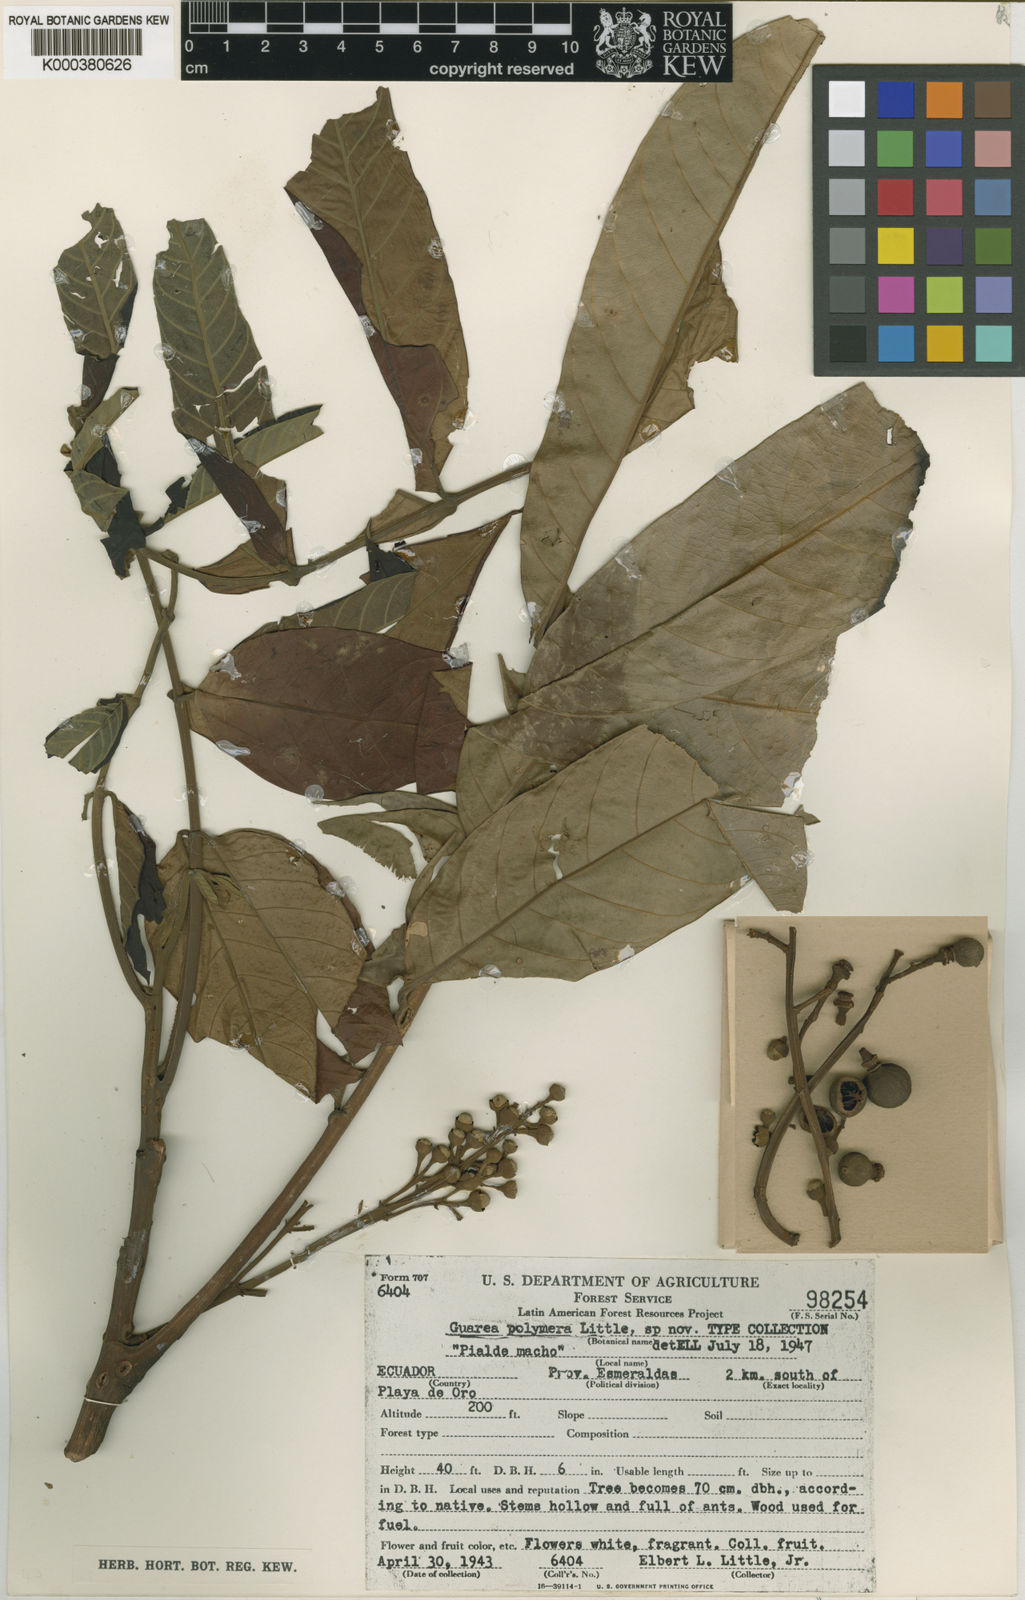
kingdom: Plantae
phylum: Tracheophyta
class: Magnoliopsida
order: Sapindales
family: Meliaceae
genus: Guarea
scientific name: Guarea polymera
